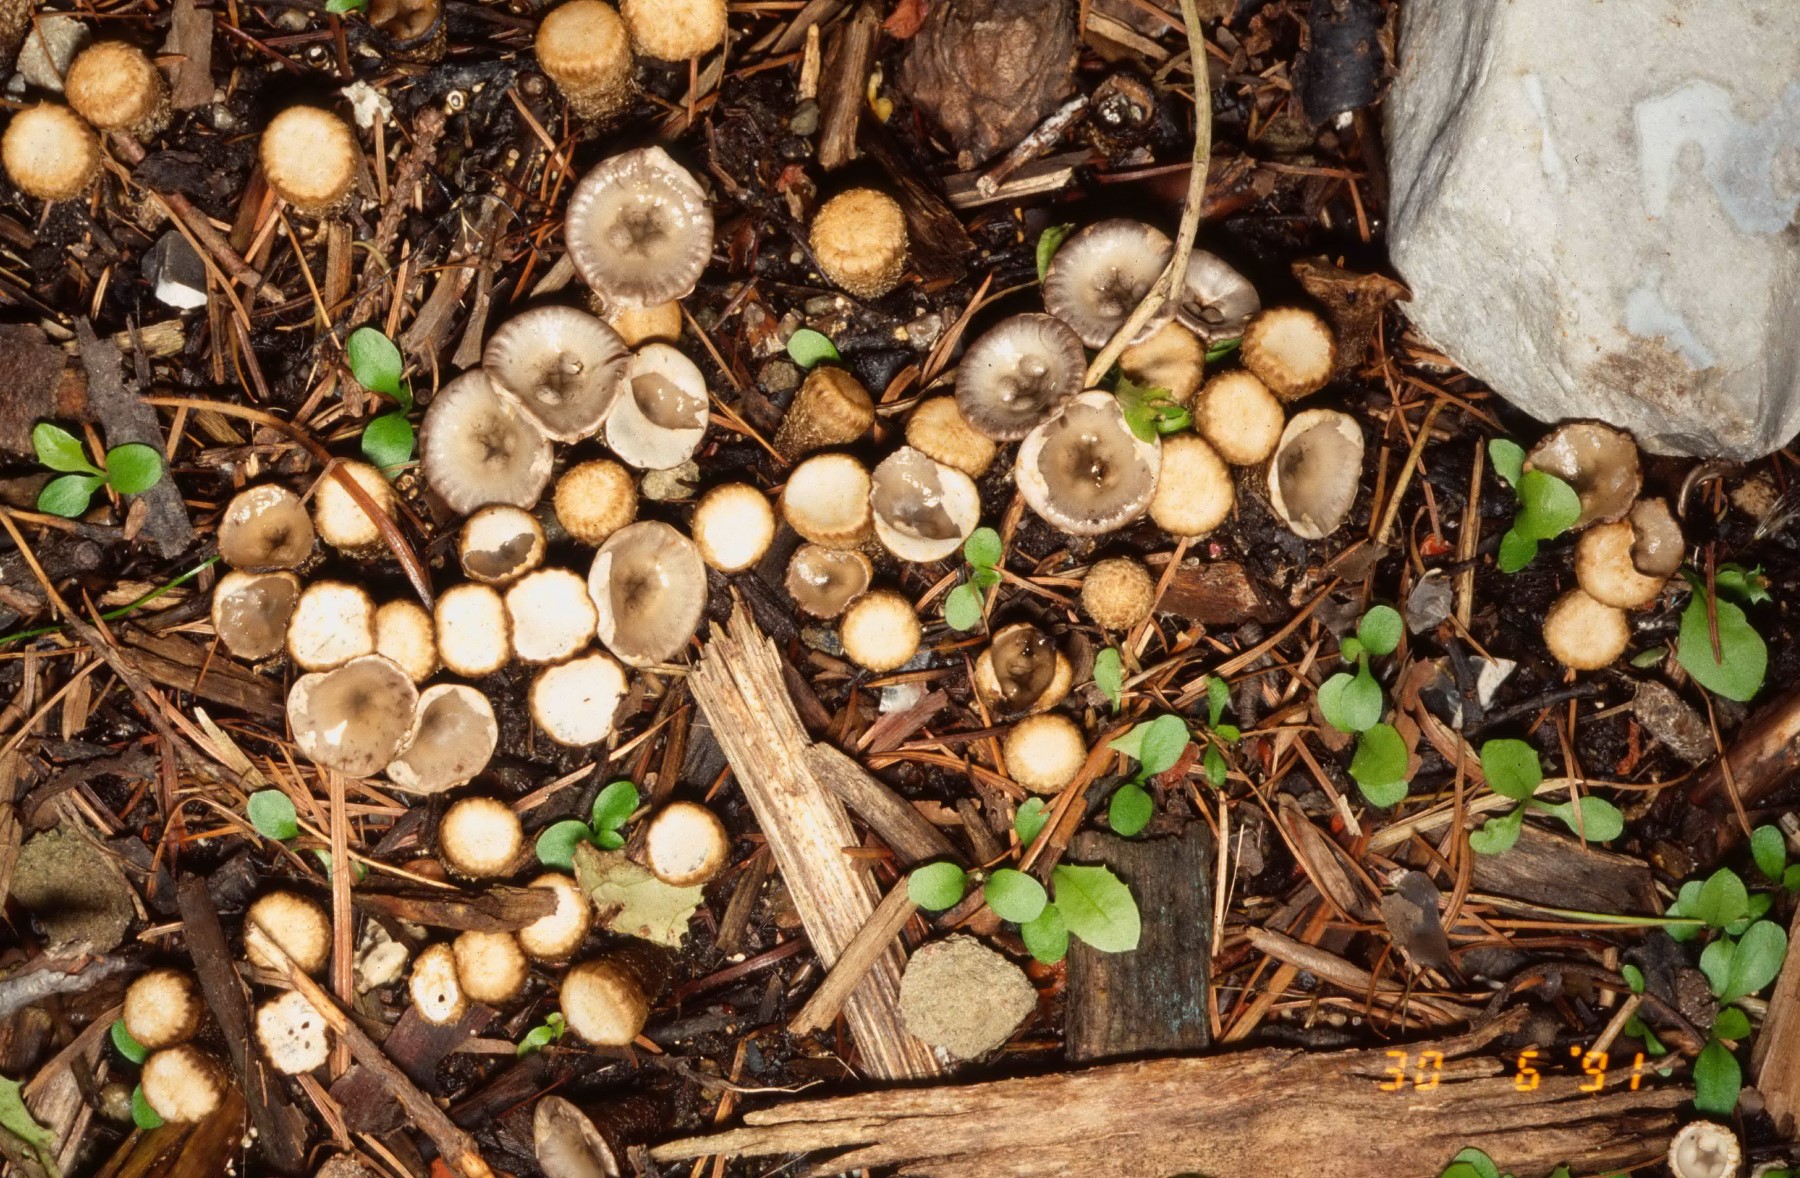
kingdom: Fungi
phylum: Basidiomycota
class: Agaricomycetes
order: Agaricales
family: Agaricaceae
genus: Cyathus
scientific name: Cyathus olla
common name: klokke-redesvamp
